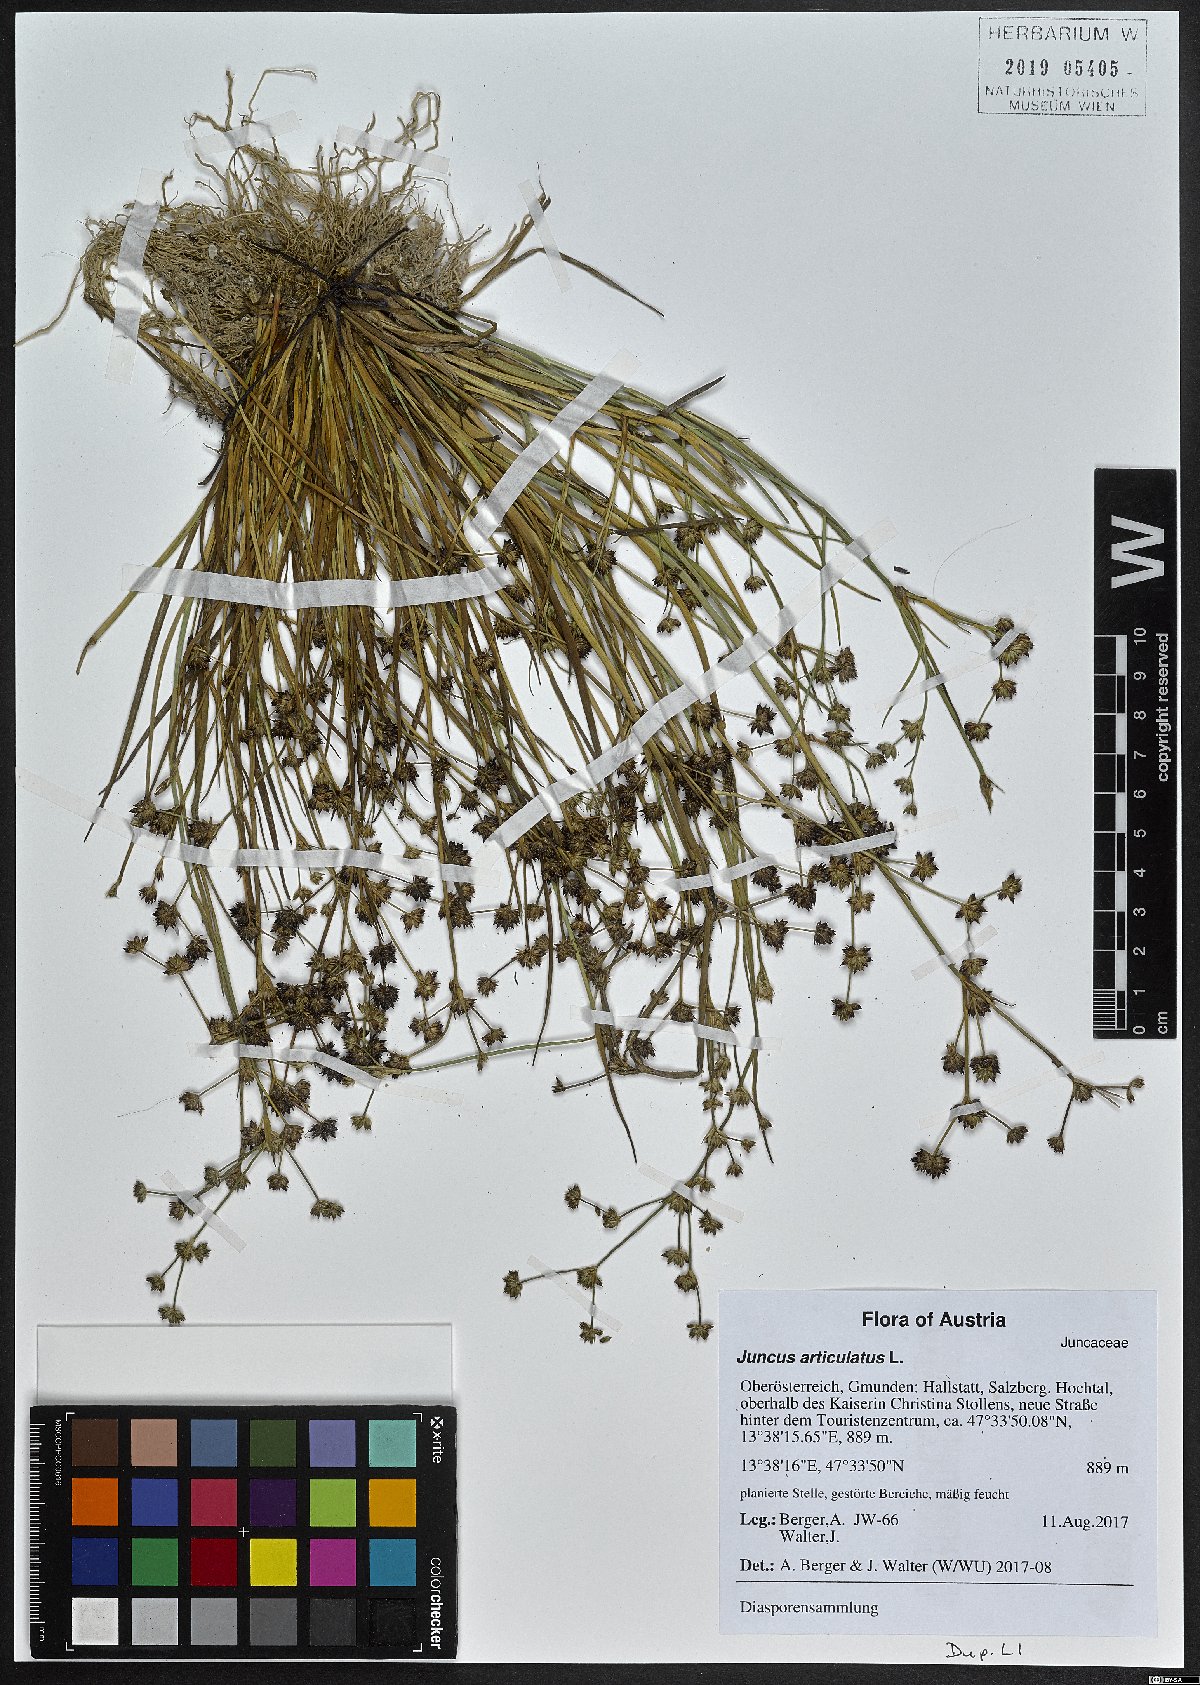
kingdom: Plantae
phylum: Tracheophyta
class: Liliopsida
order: Poales
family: Juncaceae
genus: Juncus
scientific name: Juncus articulatus
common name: Jointed rush
